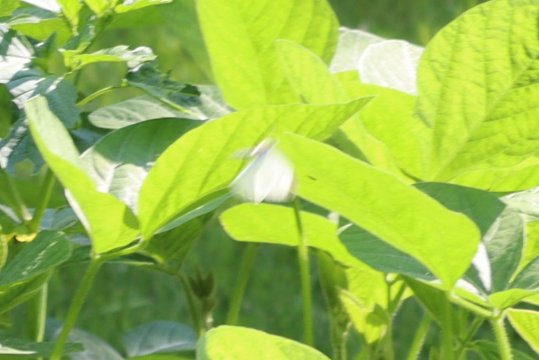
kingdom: Animalia
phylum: Arthropoda
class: Insecta
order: Lepidoptera
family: Pieridae
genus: Pieris
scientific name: Pieris rapae
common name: Cabbage White
